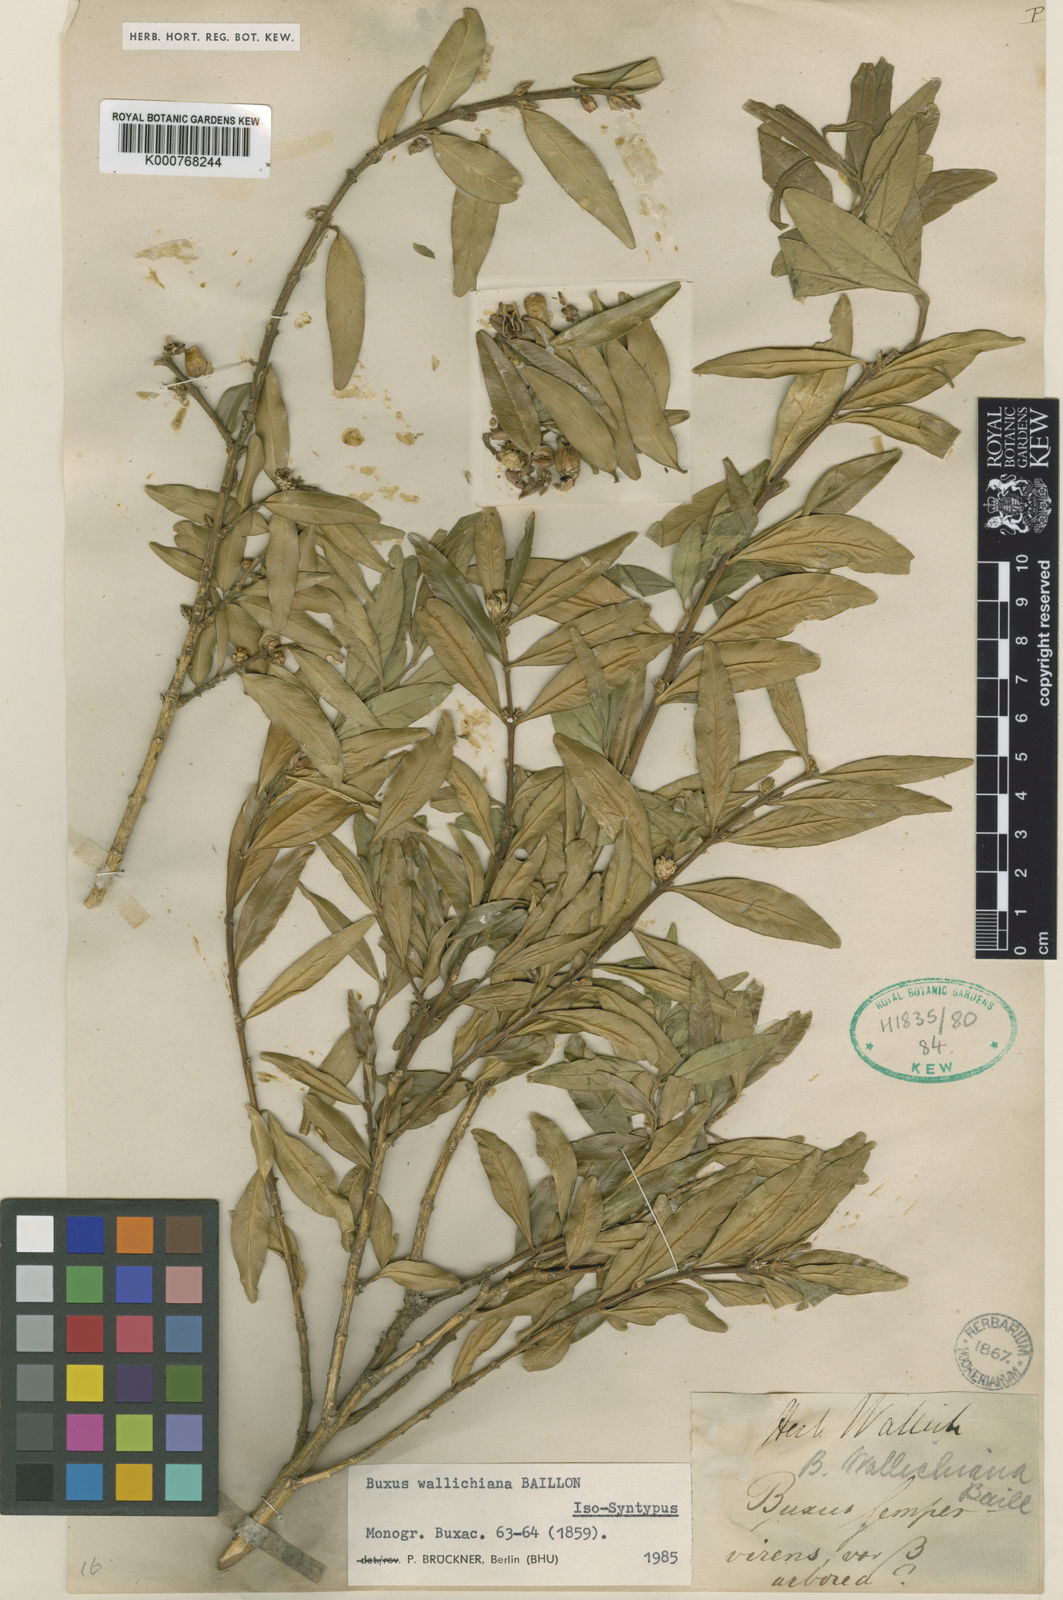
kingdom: Plantae
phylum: Tracheophyta
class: Magnoliopsida
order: Buxales
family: Buxaceae
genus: Buxus
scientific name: Buxus wallichiana
